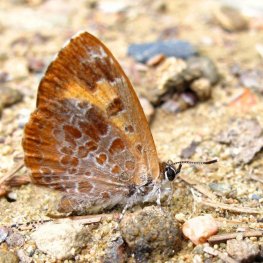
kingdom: Animalia
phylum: Arthropoda
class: Insecta
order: Lepidoptera
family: Lycaenidae
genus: Feniseca
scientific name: Feniseca tarquinius
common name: Harvester
